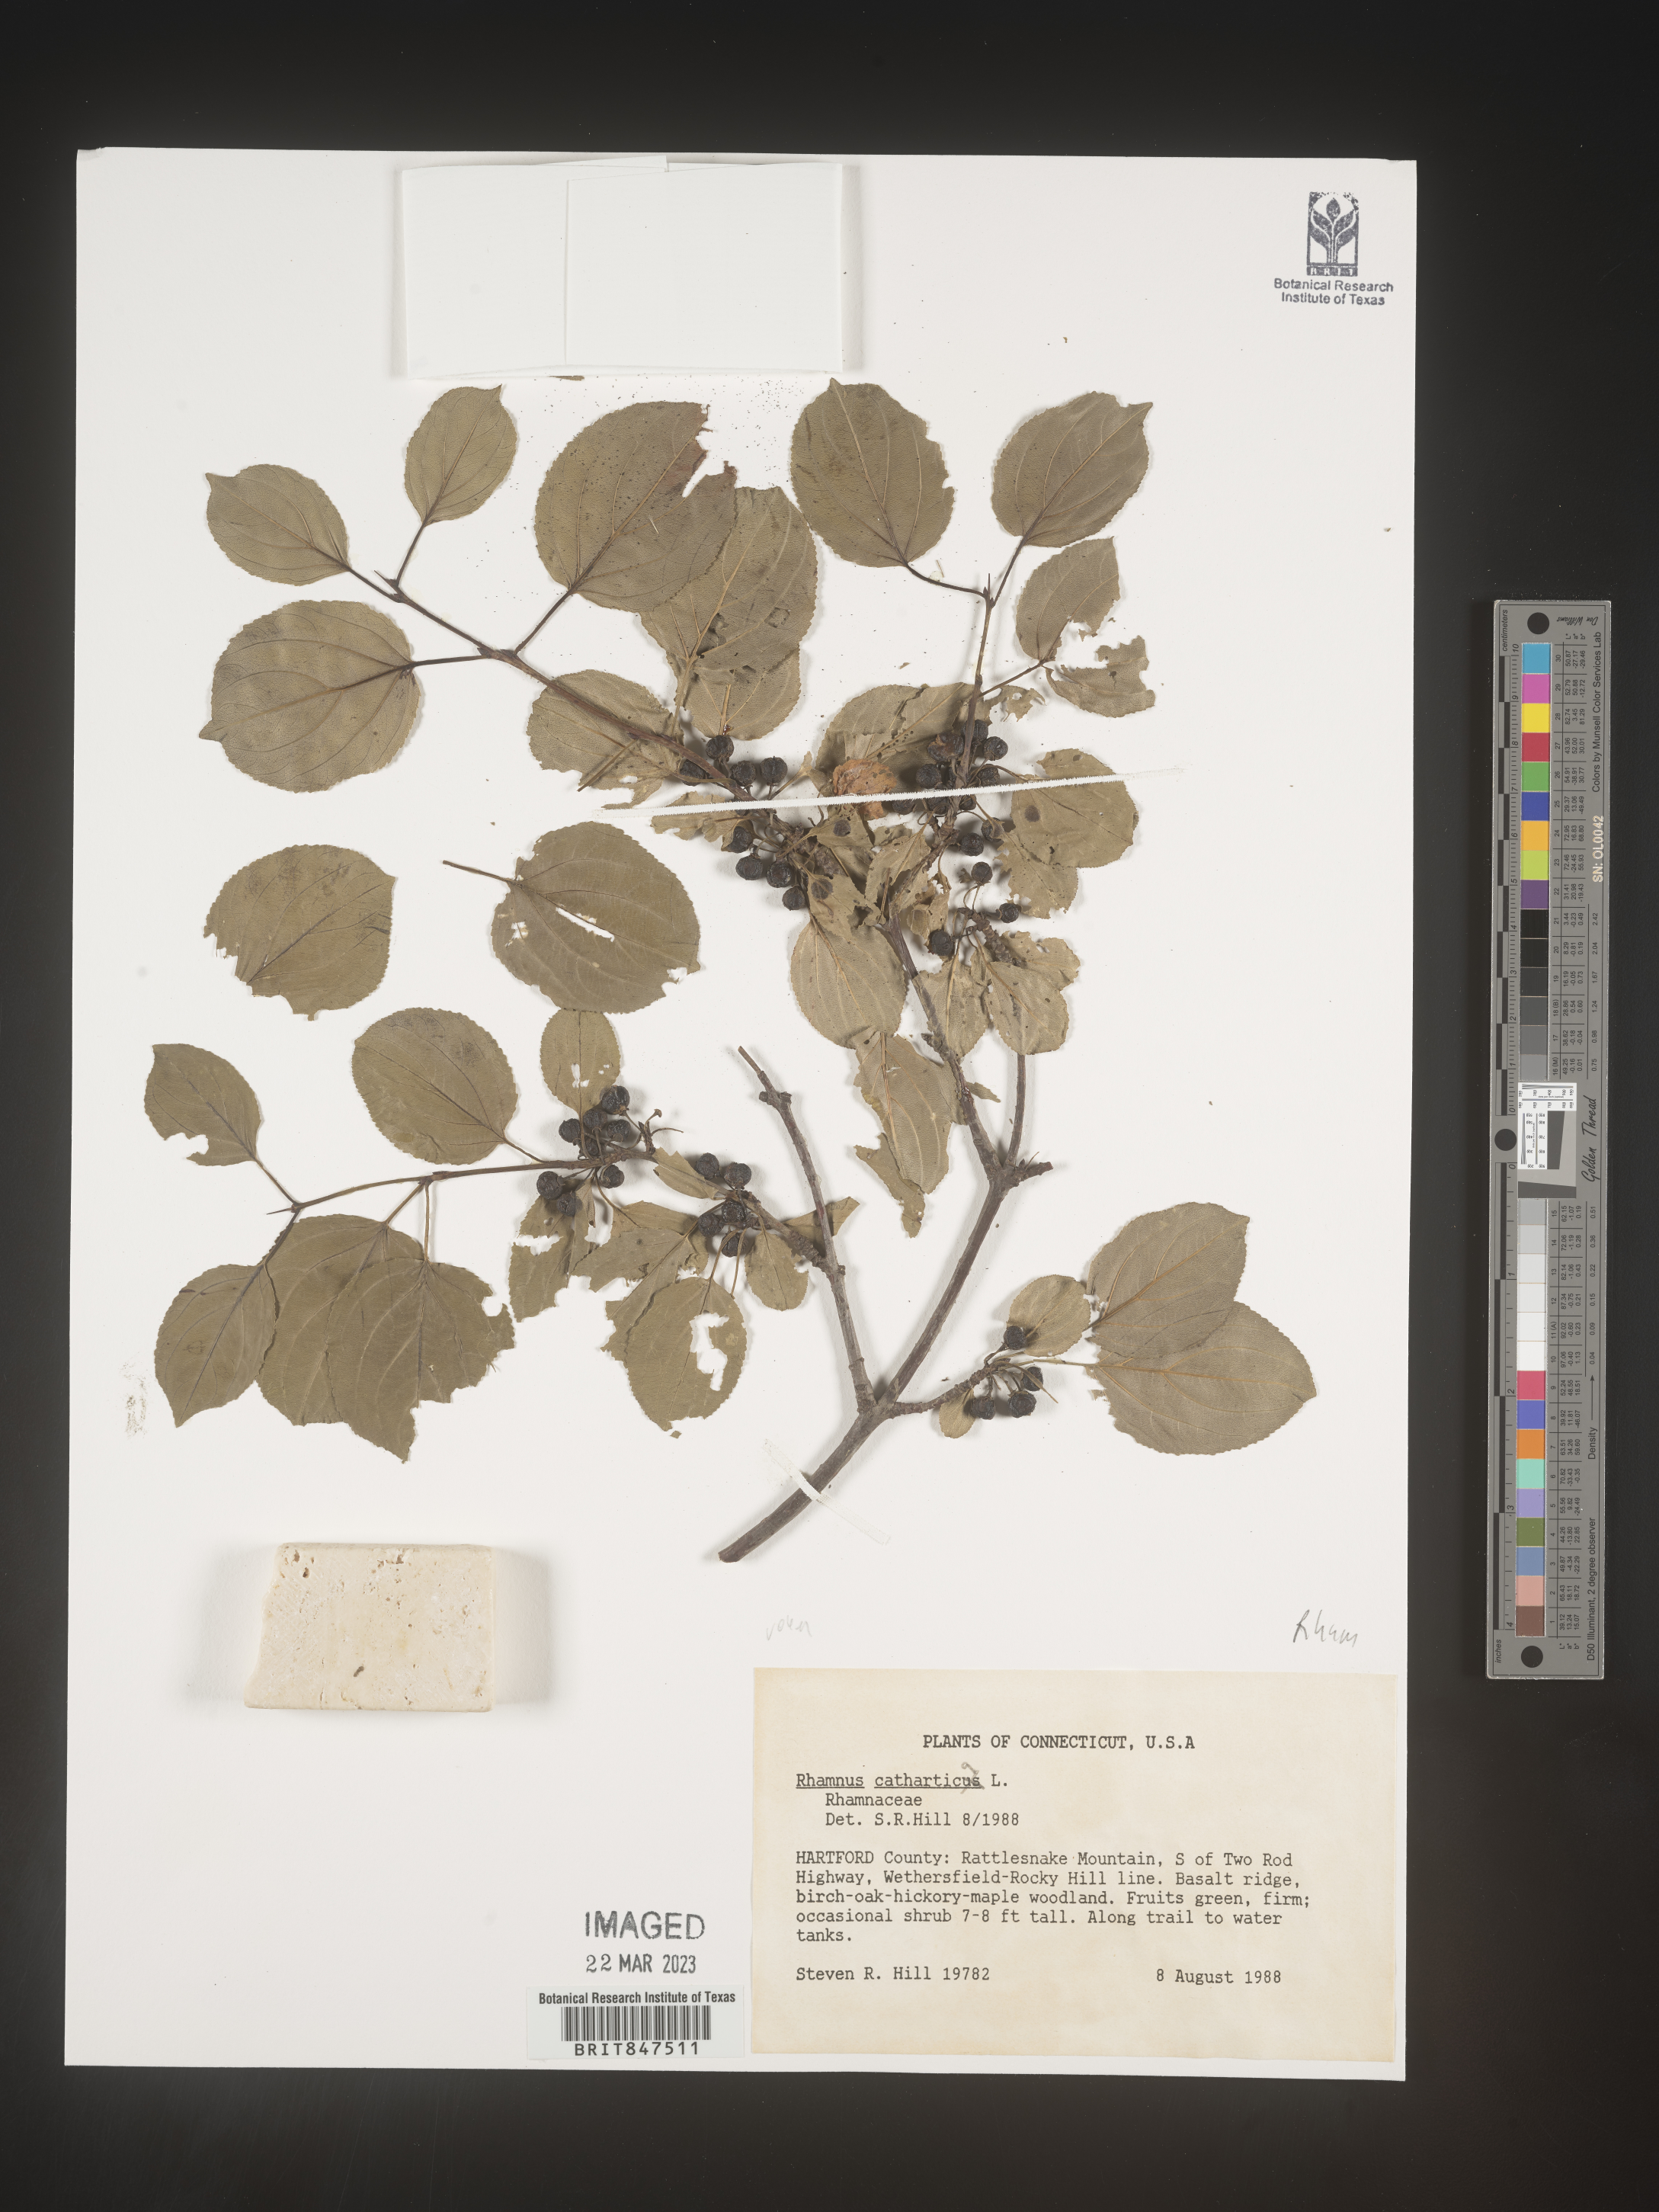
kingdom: Plantae
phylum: Tracheophyta
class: Magnoliopsida
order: Rosales
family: Rhamnaceae
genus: Rhamnus
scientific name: Rhamnus cathartica
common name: Common buckthorn
